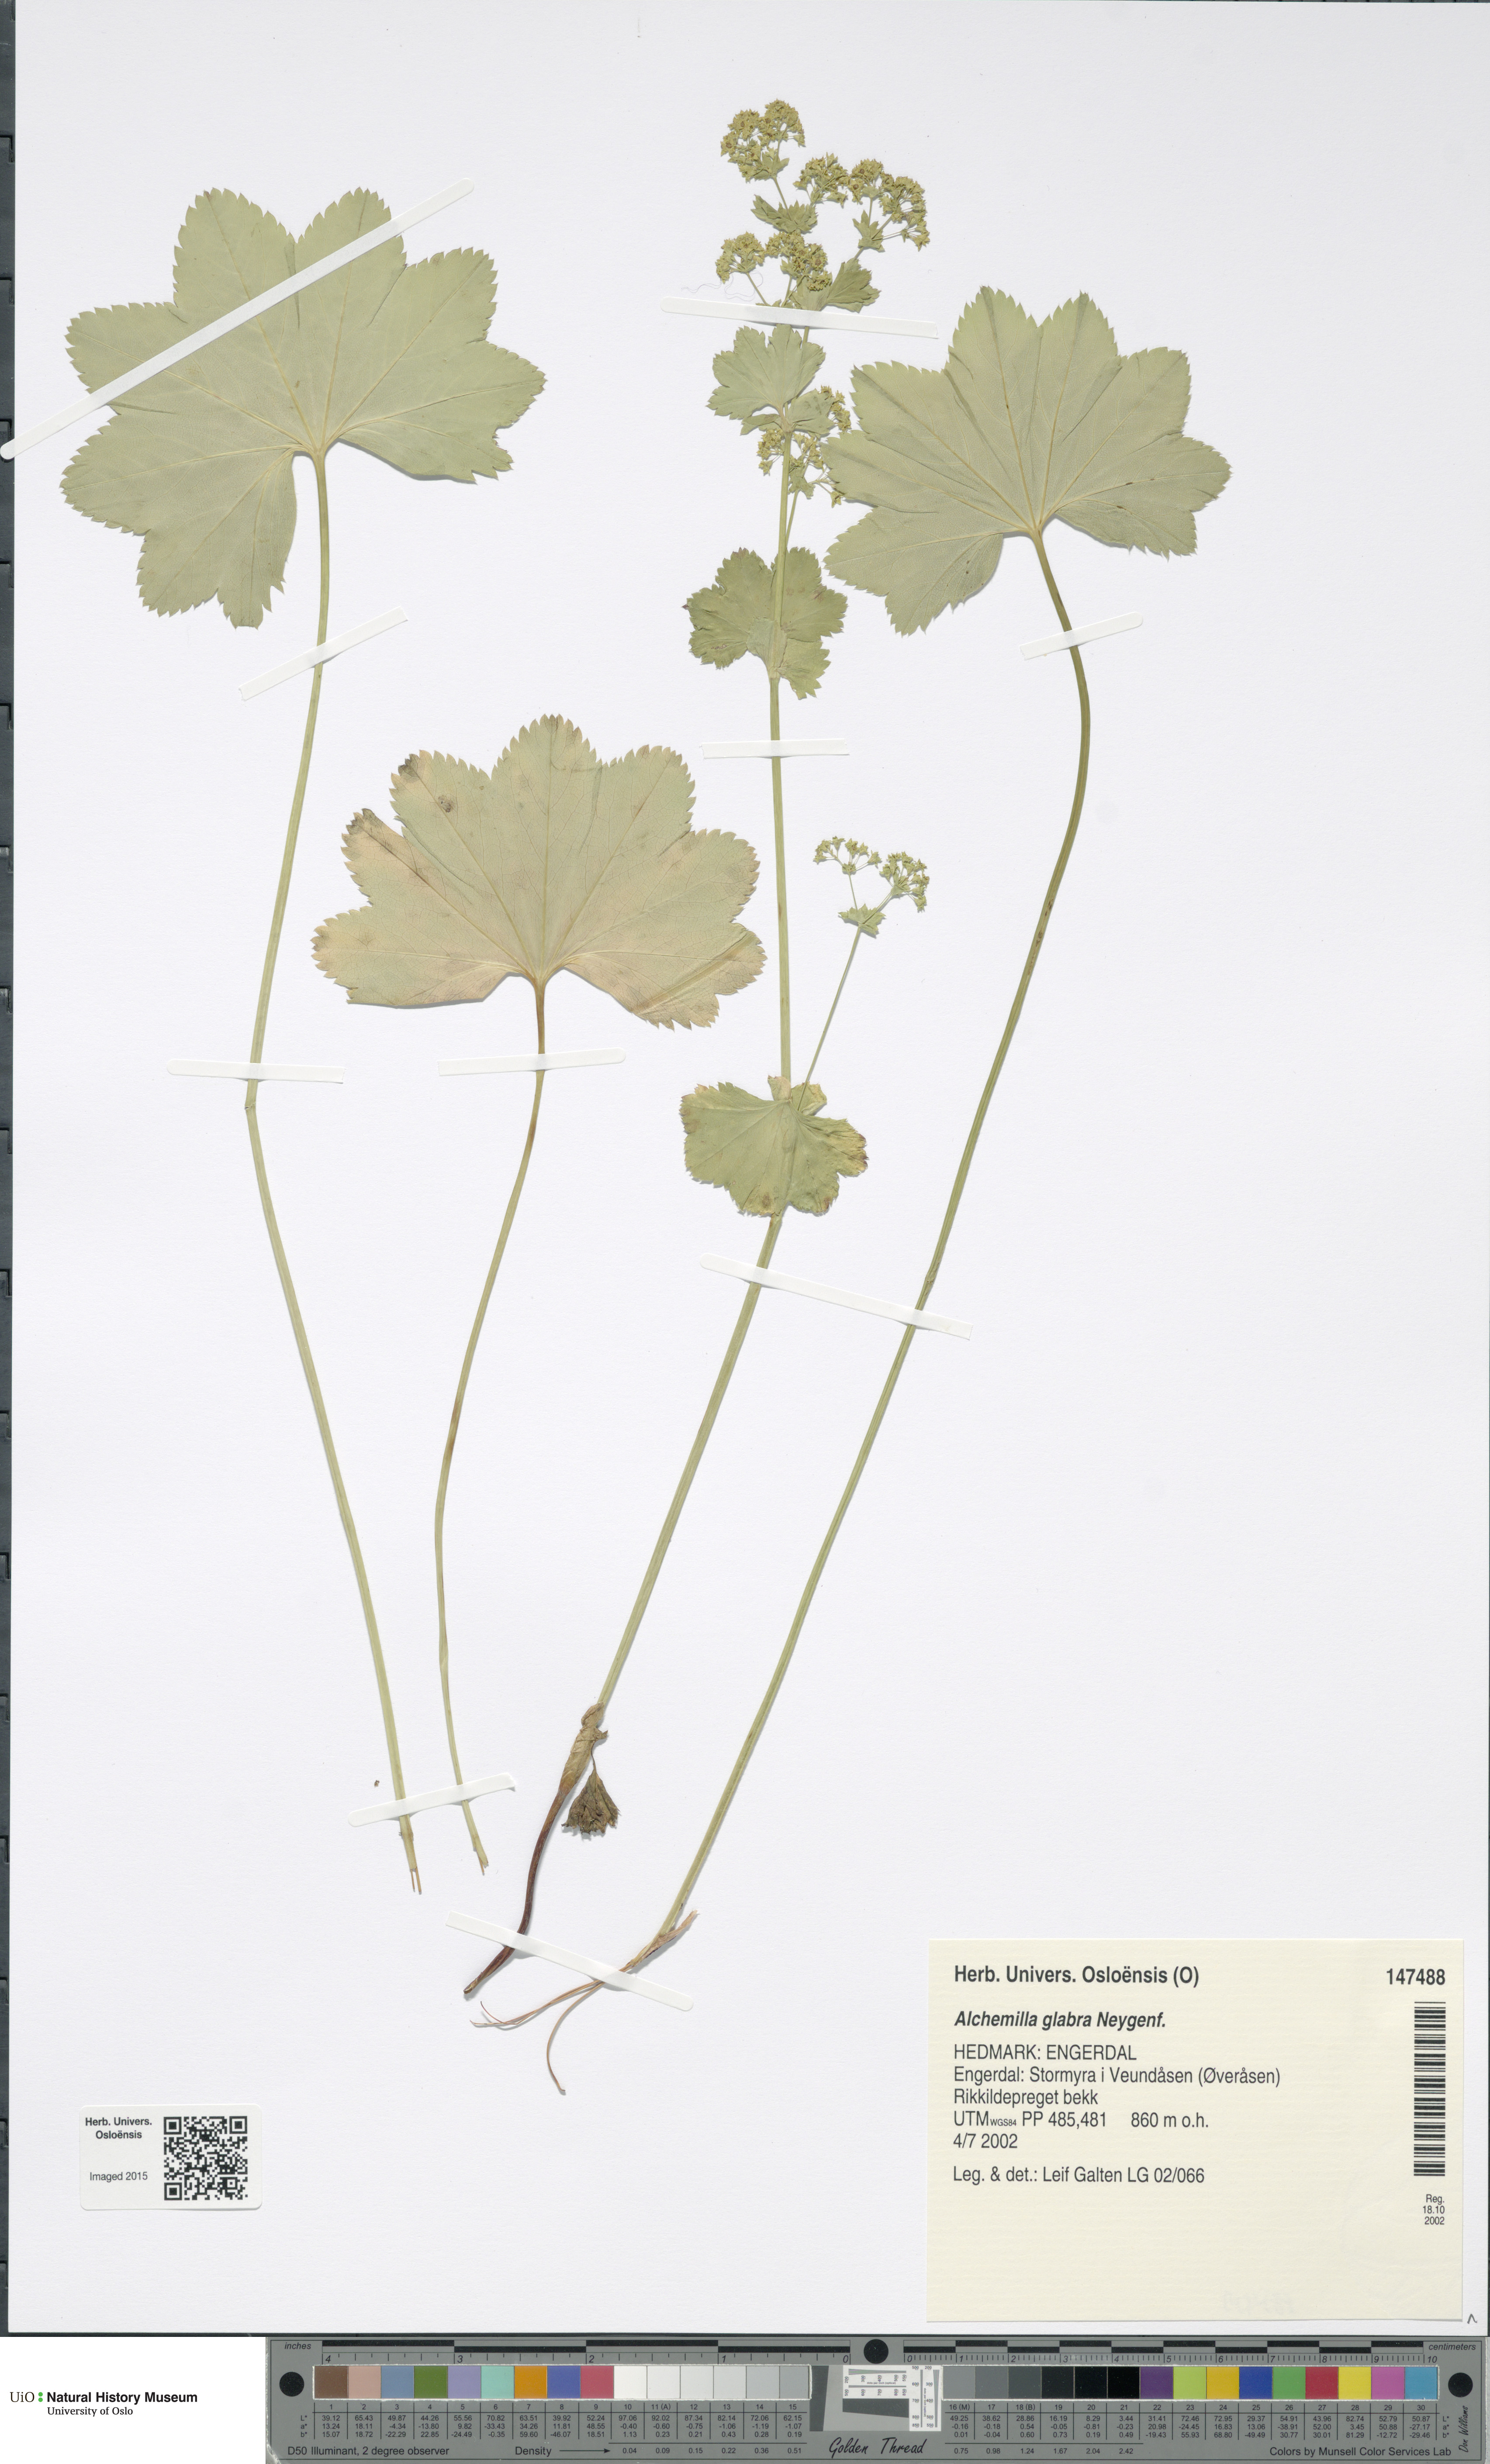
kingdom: Plantae
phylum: Tracheophyta
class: Magnoliopsida
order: Rosales
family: Rosaceae
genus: Alchemilla
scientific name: Alchemilla glabra
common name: Smooth lady's-mantle
